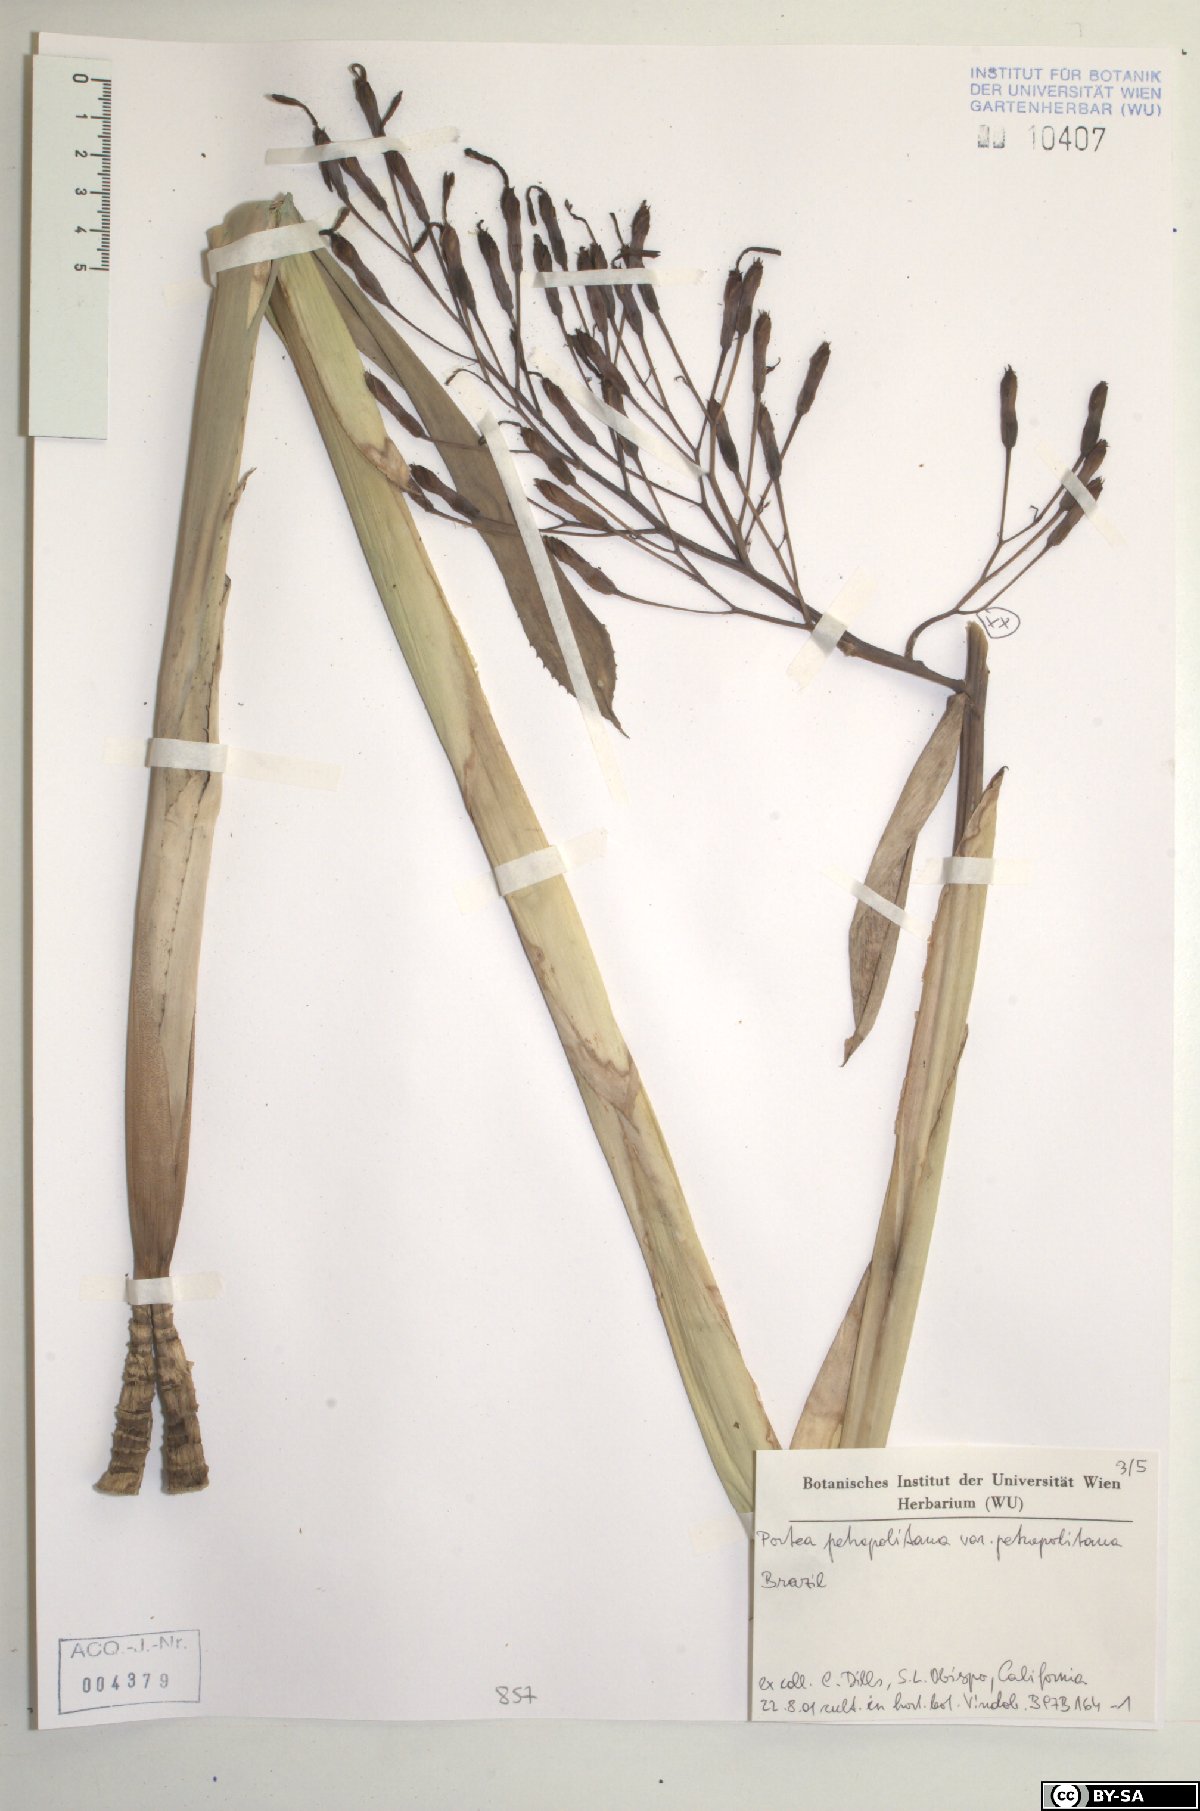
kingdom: Plantae
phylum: Tracheophyta
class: Liliopsida
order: Poales
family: Bromeliaceae
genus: Portea
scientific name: Portea petropolitana
